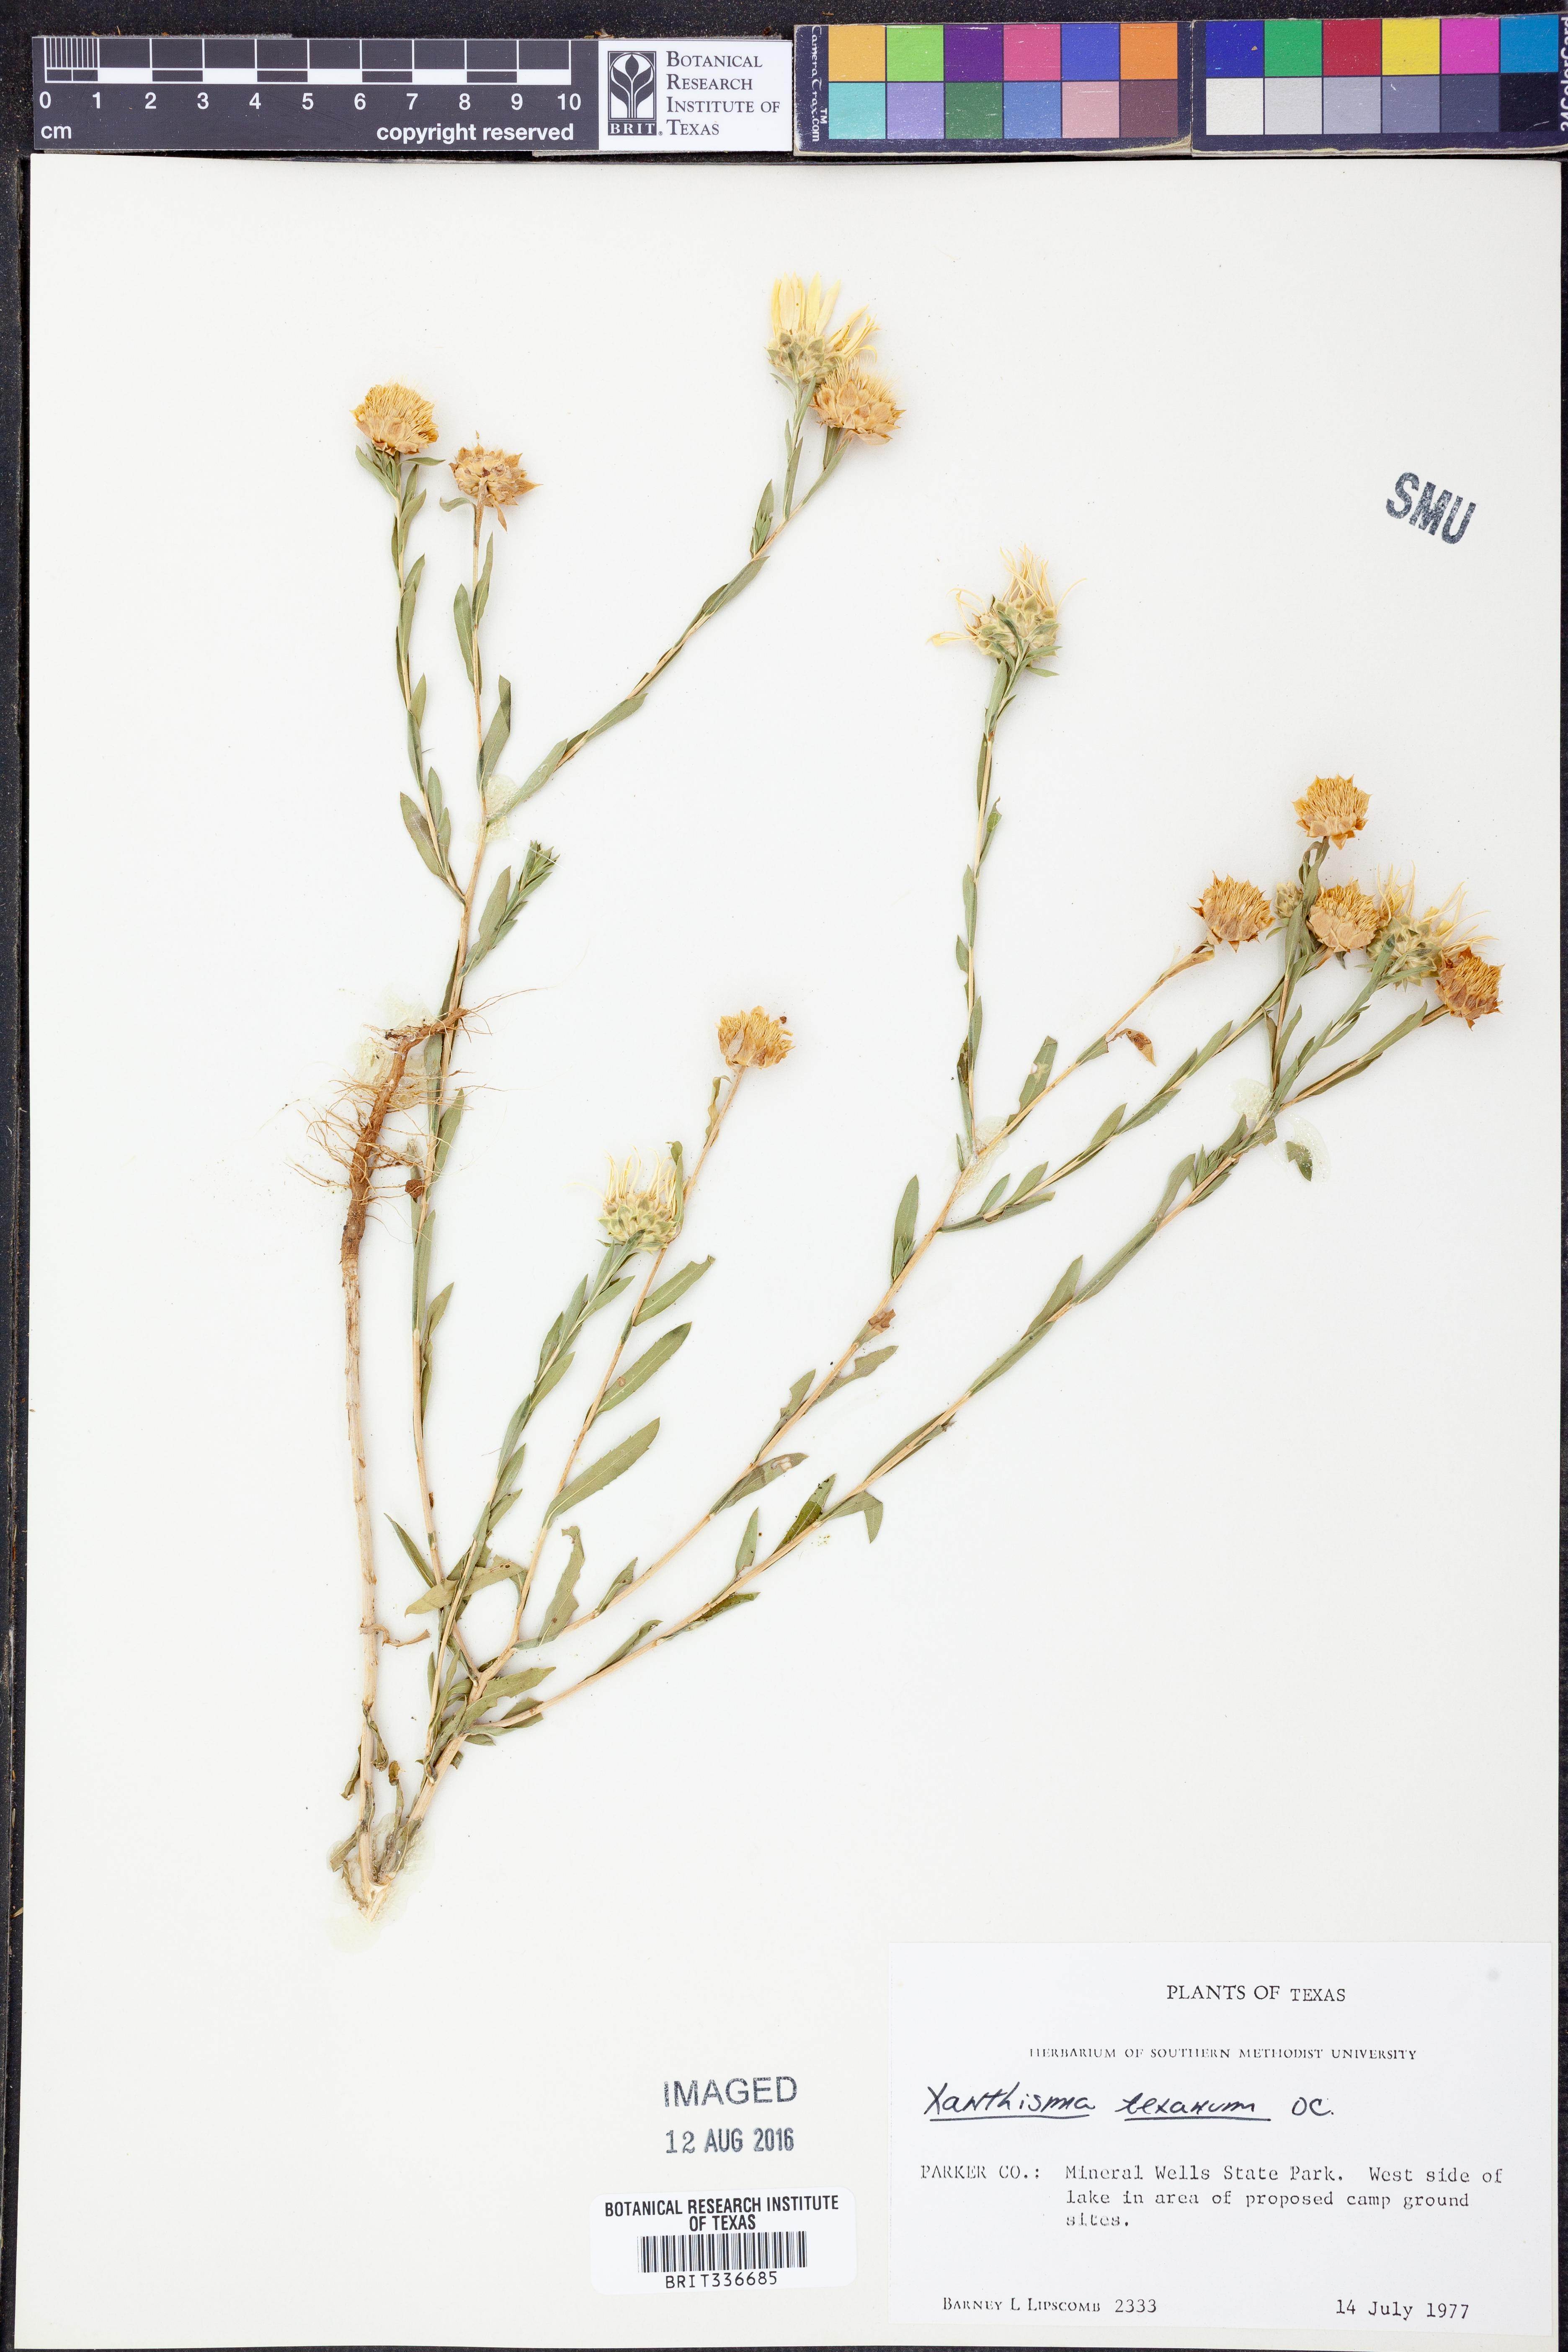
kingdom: Plantae
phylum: Tracheophyta
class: Magnoliopsida
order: Asterales
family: Asteraceae
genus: Xanthisma
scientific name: Xanthisma texanum
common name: Texas sleepy daisy
